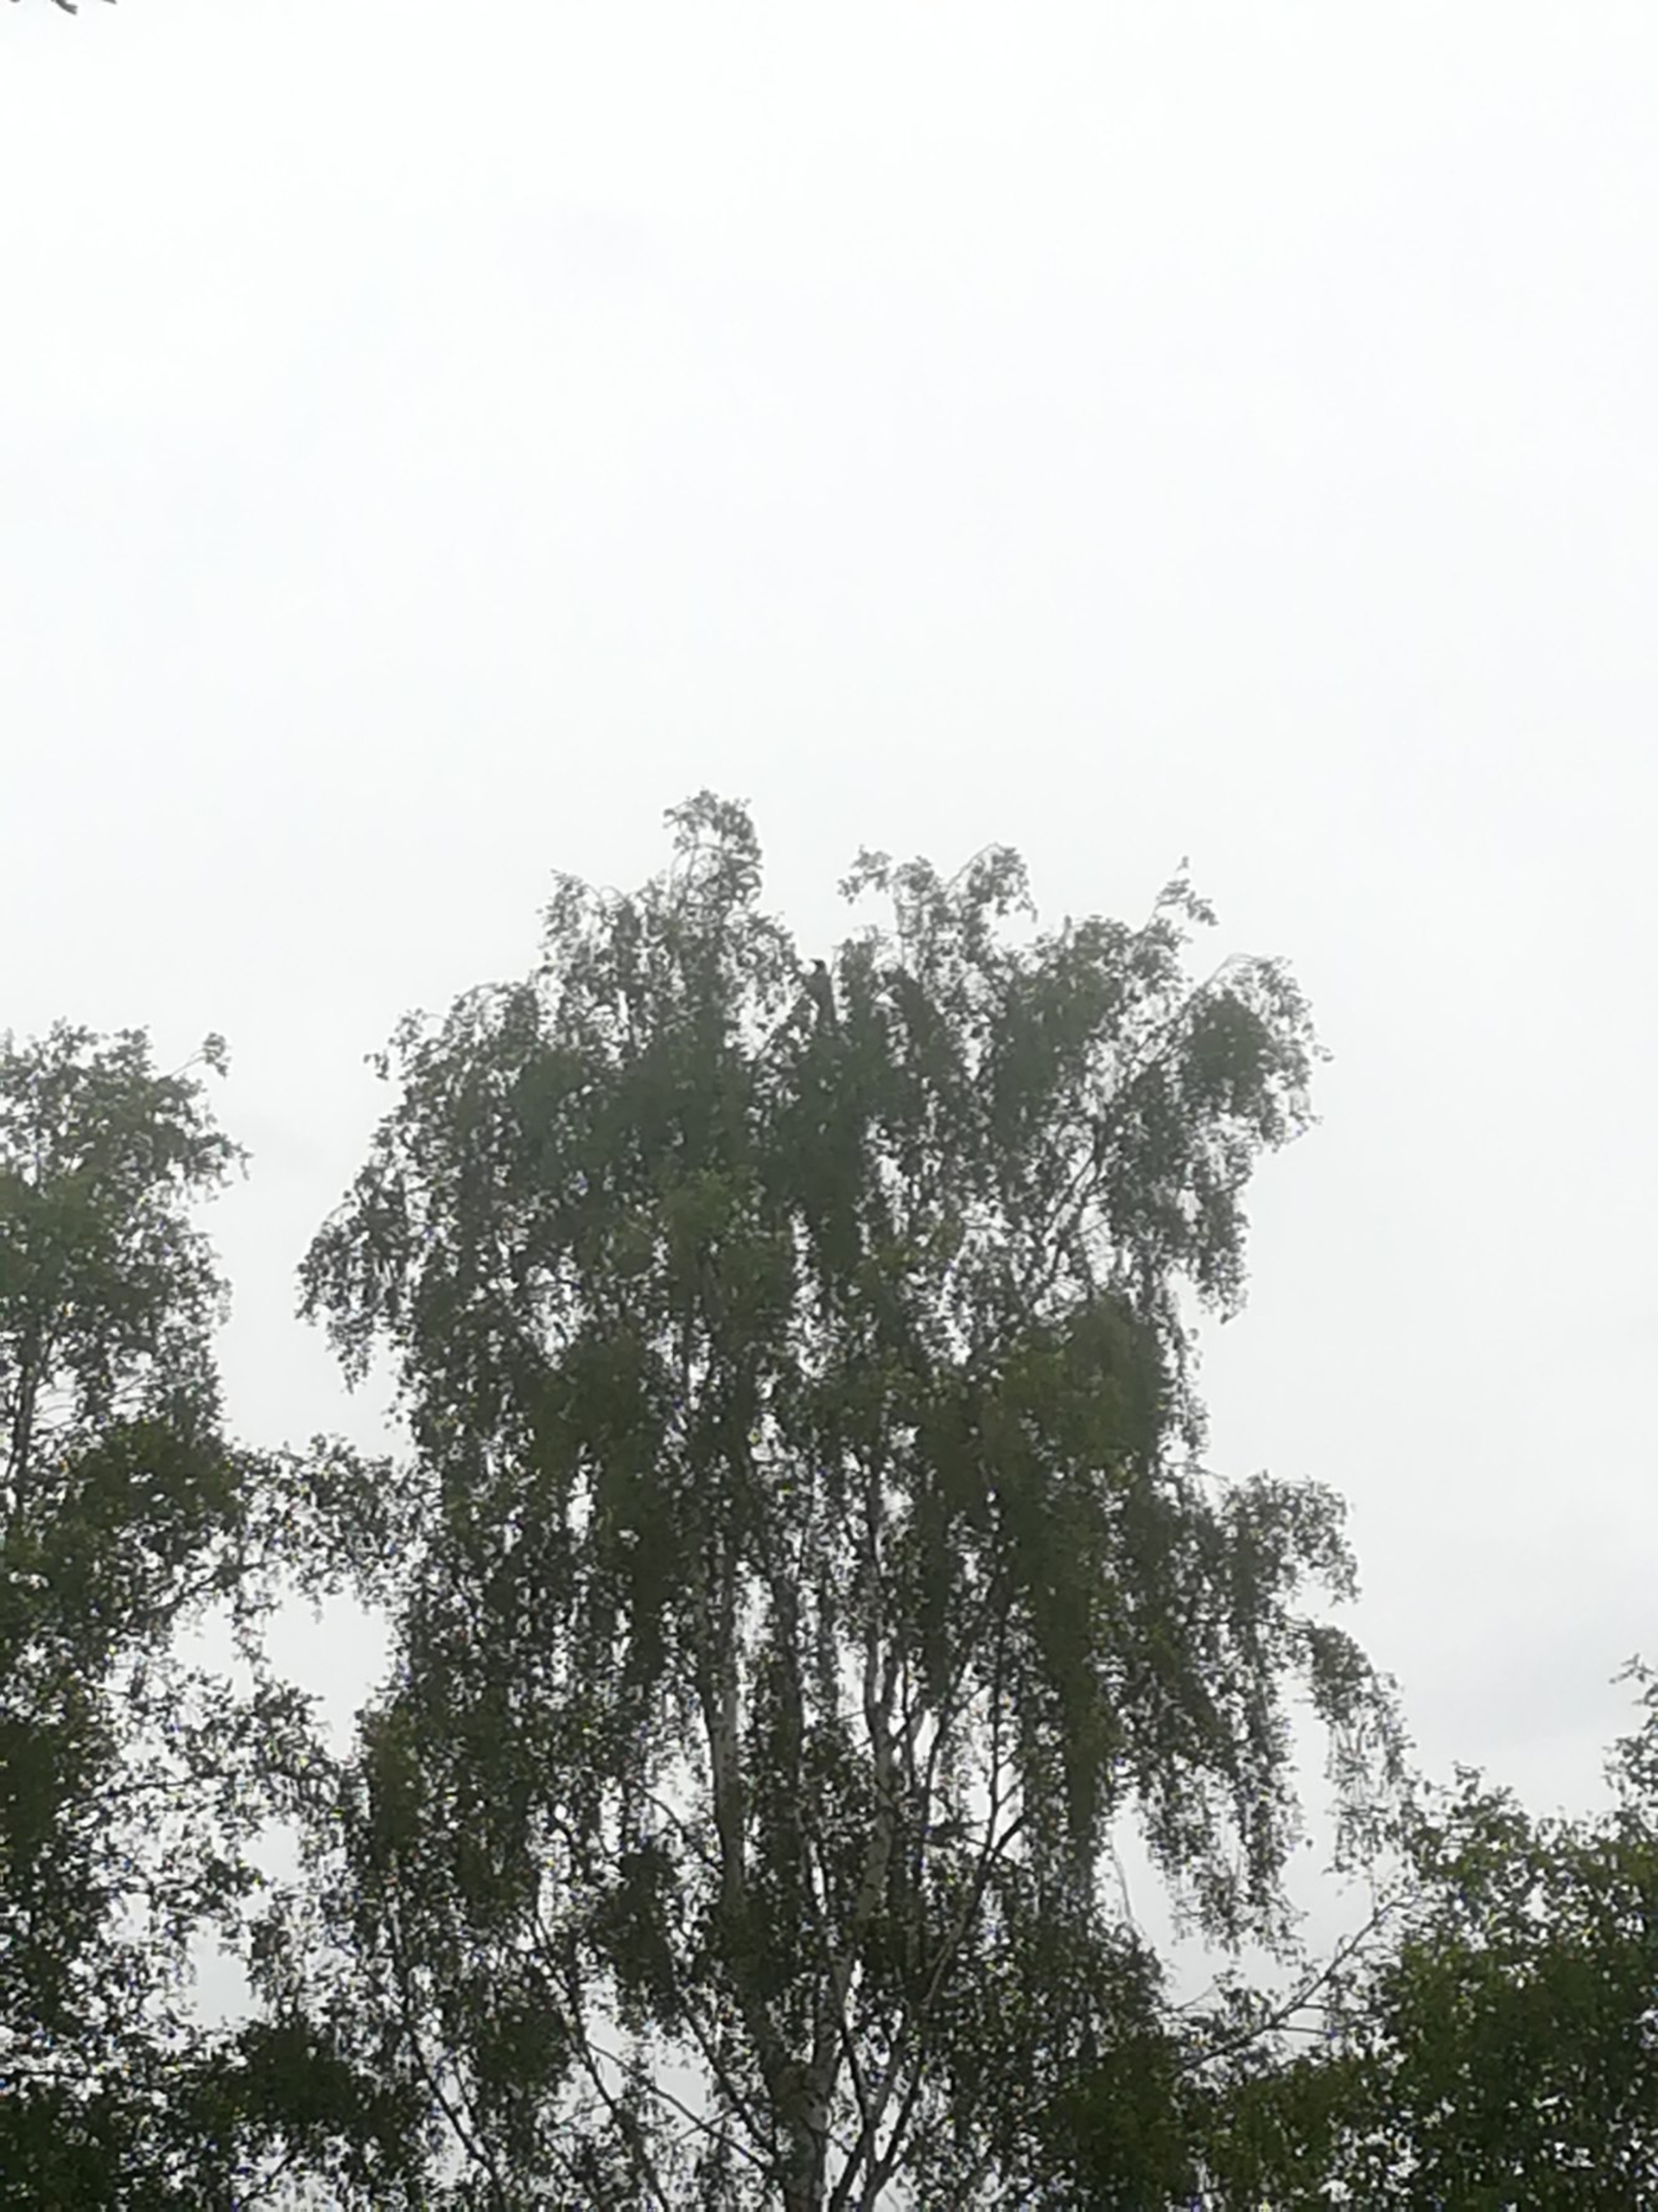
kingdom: Animalia
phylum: Chordata
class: Aves
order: Passeriformes
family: Corvidae
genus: Corvus
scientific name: Corvus cornix
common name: Gråkrage
